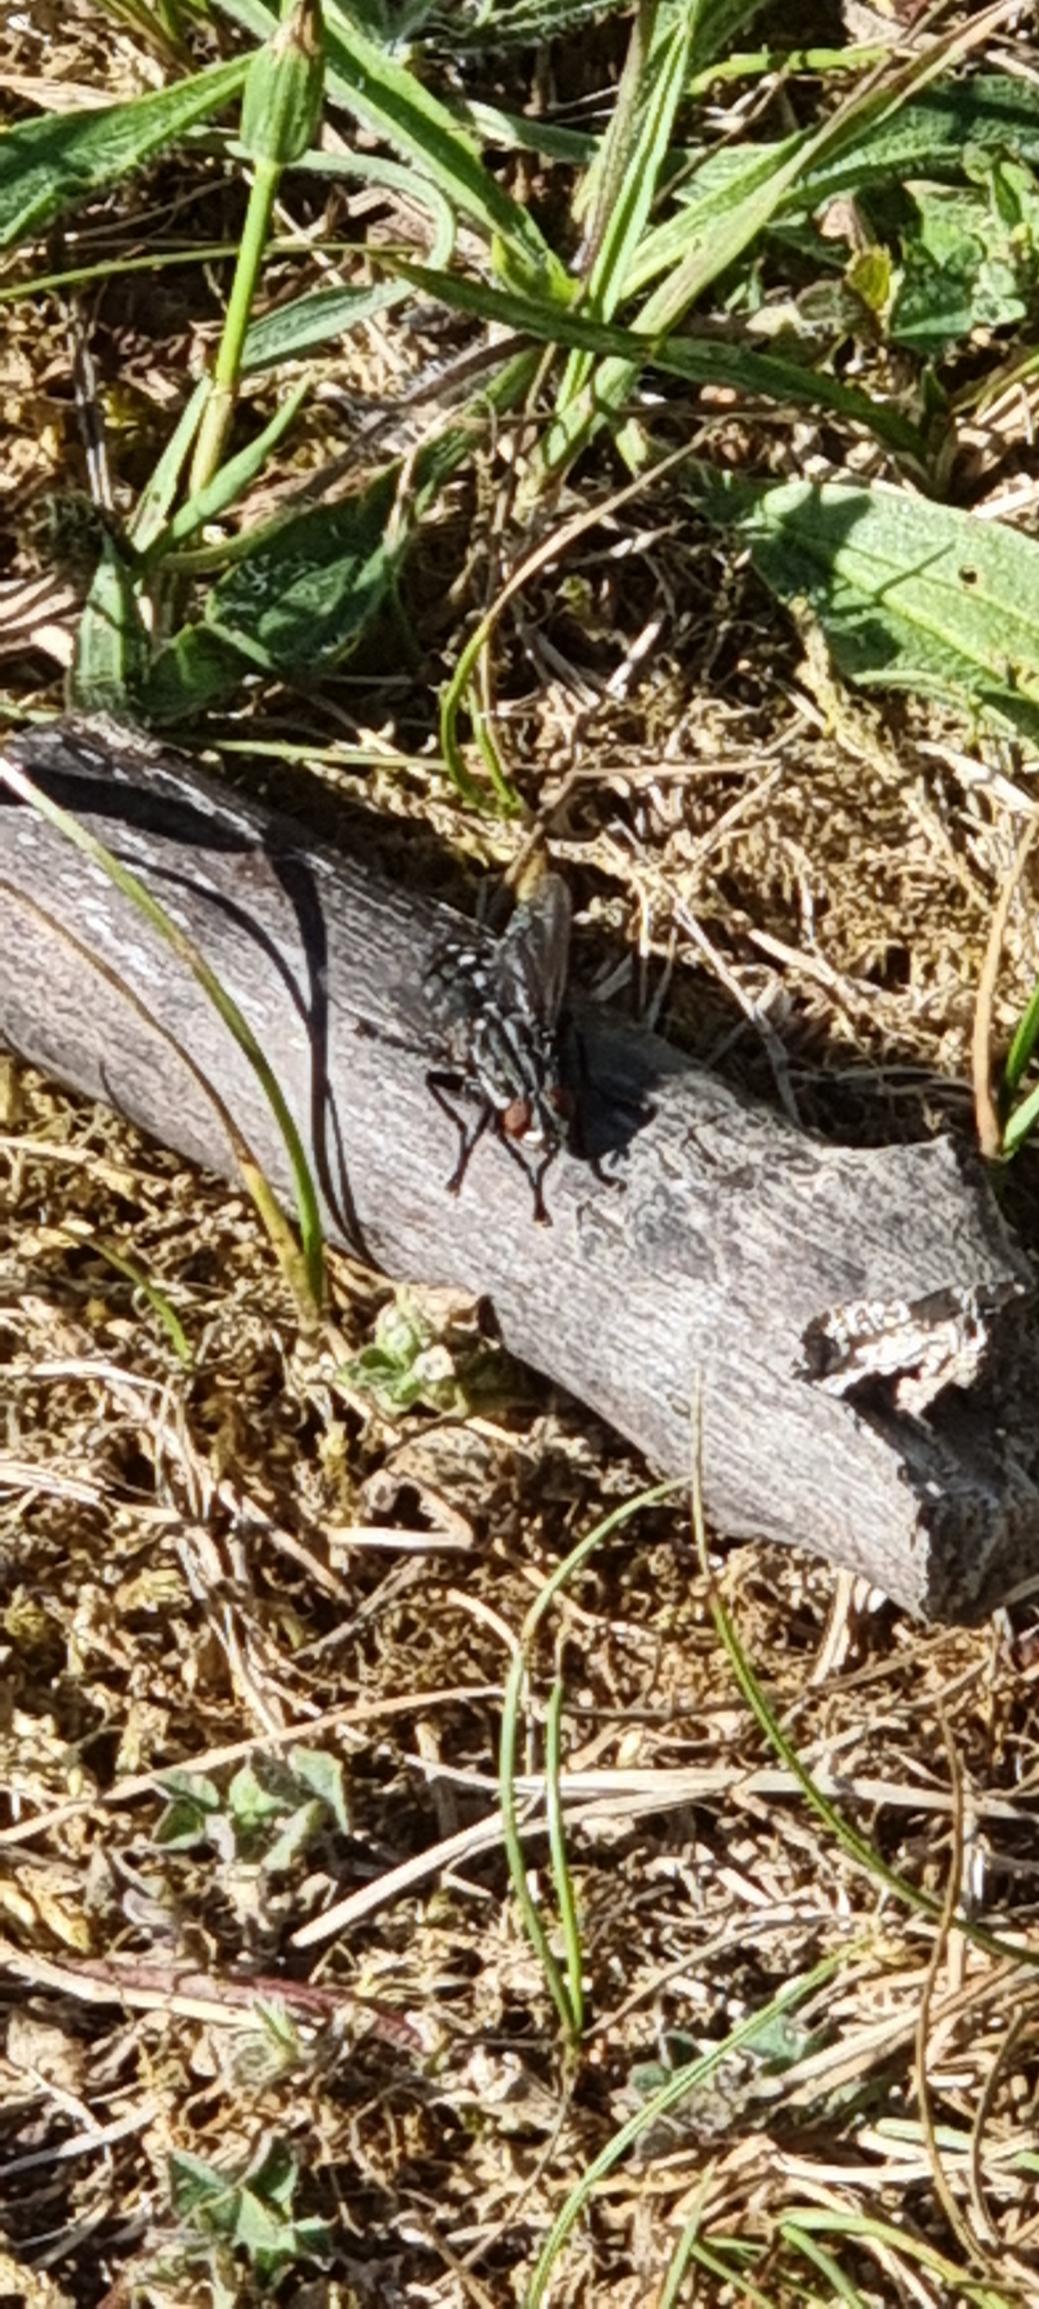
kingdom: Animalia
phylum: Arthropoda
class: Insecta
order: Diptera
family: Sarcophagidae
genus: Sarcophaga
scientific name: Sarcophaga
